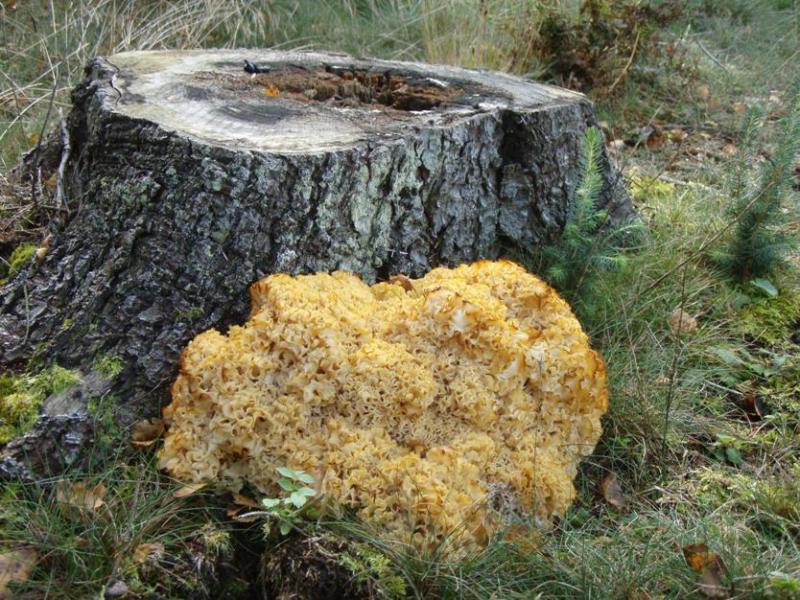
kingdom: Fungi
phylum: Basidiomycota
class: Agaricomycetes
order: Polyporales
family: Sparassidaceae
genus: Sparassis
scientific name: Sparassis crispa
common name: kruset blomkålssvamp
